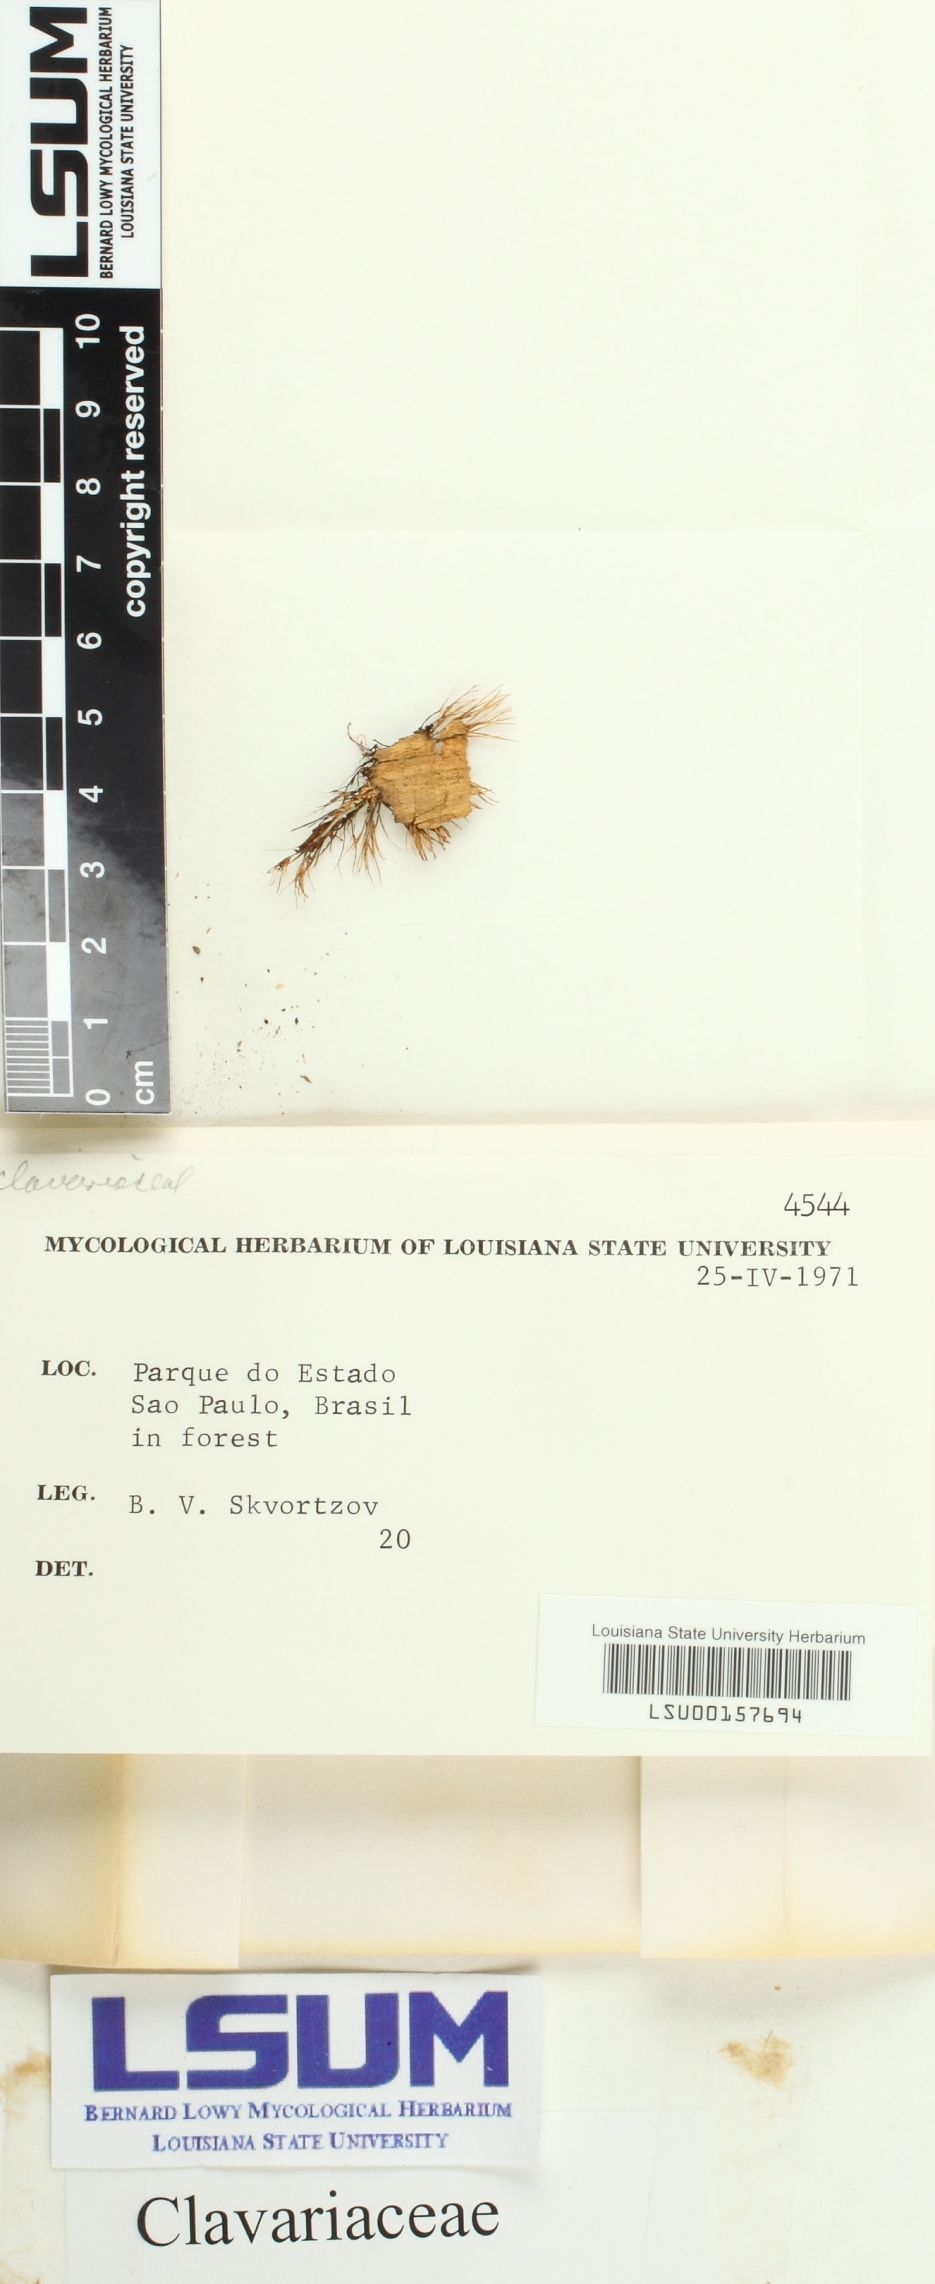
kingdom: Fungi
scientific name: Fungi
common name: Fungi
